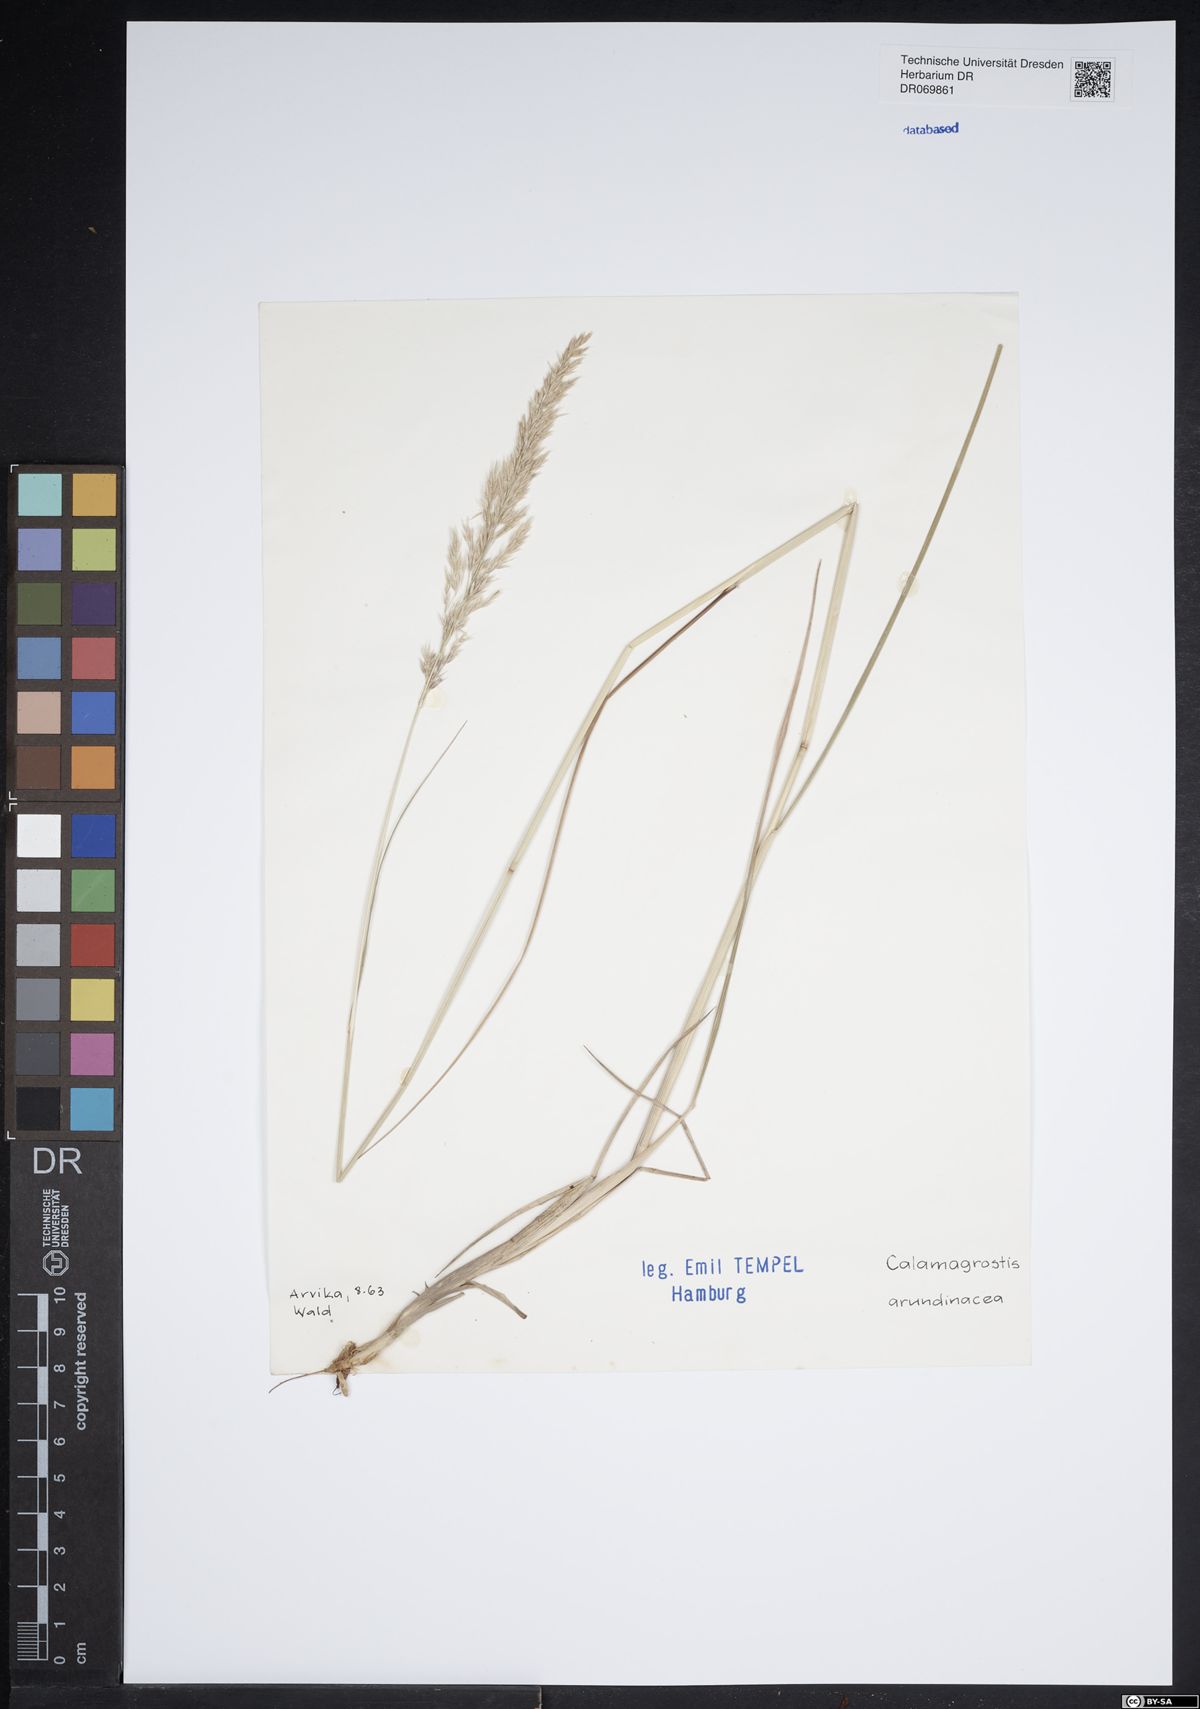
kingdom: Plantae
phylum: Tracheophyta
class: Liliopsida
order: Poales
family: Poaceae
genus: Calamagrostis
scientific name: Calamagrostis arundinacea
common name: Metskastik
